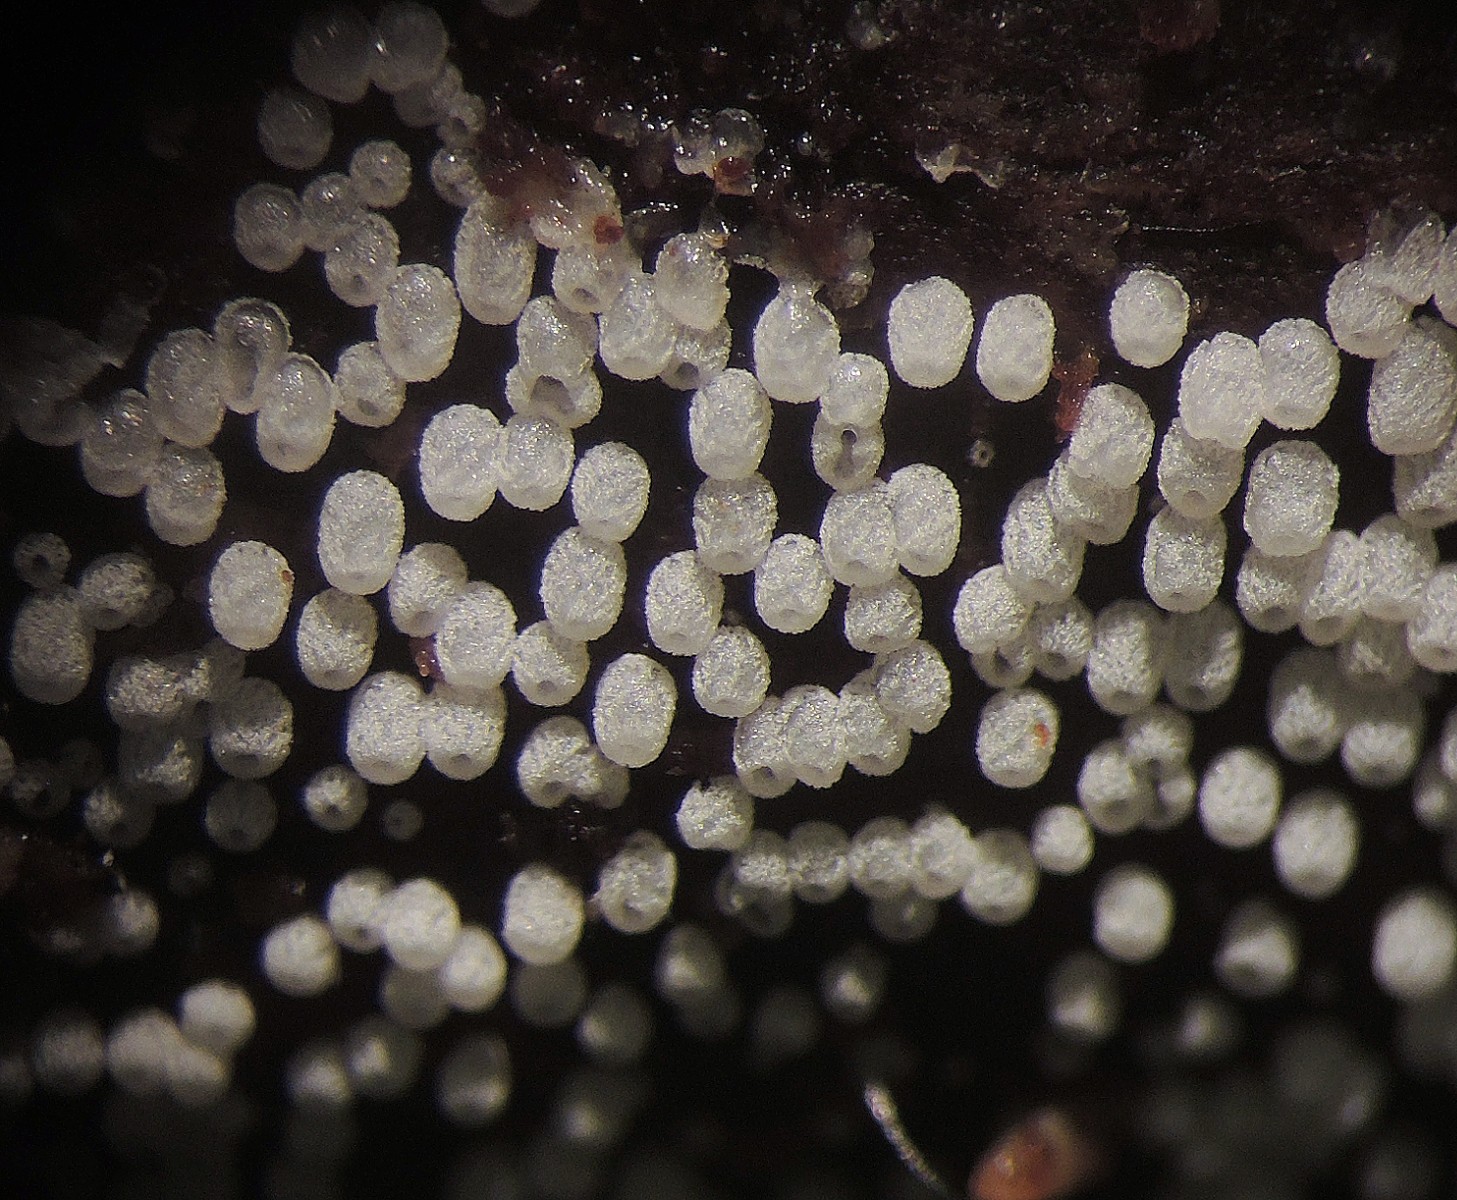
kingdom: Fungi
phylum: Basidiomycota
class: Agaricomycetes
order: Agaricales
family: Marasmiaceae
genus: Henningsomyces
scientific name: Henningsomyces candidus
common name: glat hængerør
